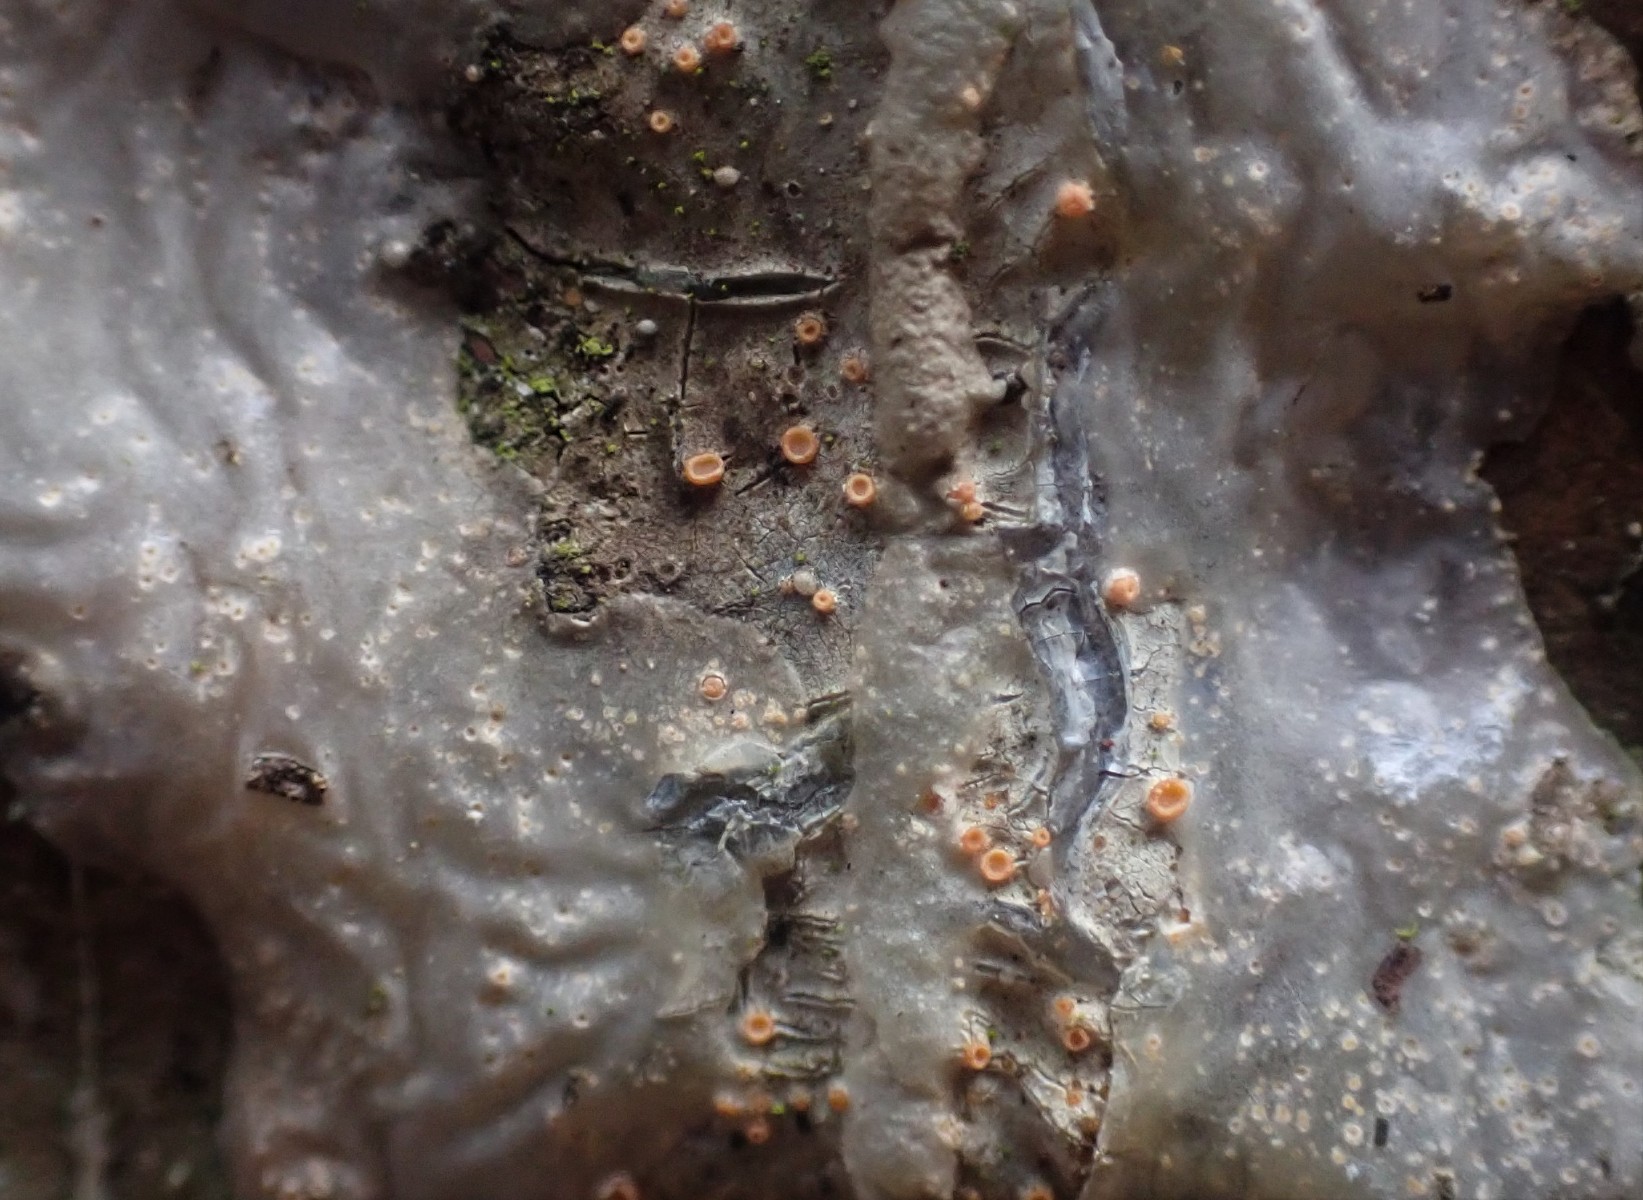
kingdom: Fungi
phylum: Ascomycota
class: Sareomycetes
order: Sareales
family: Sareaceae
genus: Sarea
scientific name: Sarea resinae
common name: orangegul harpiksskive
